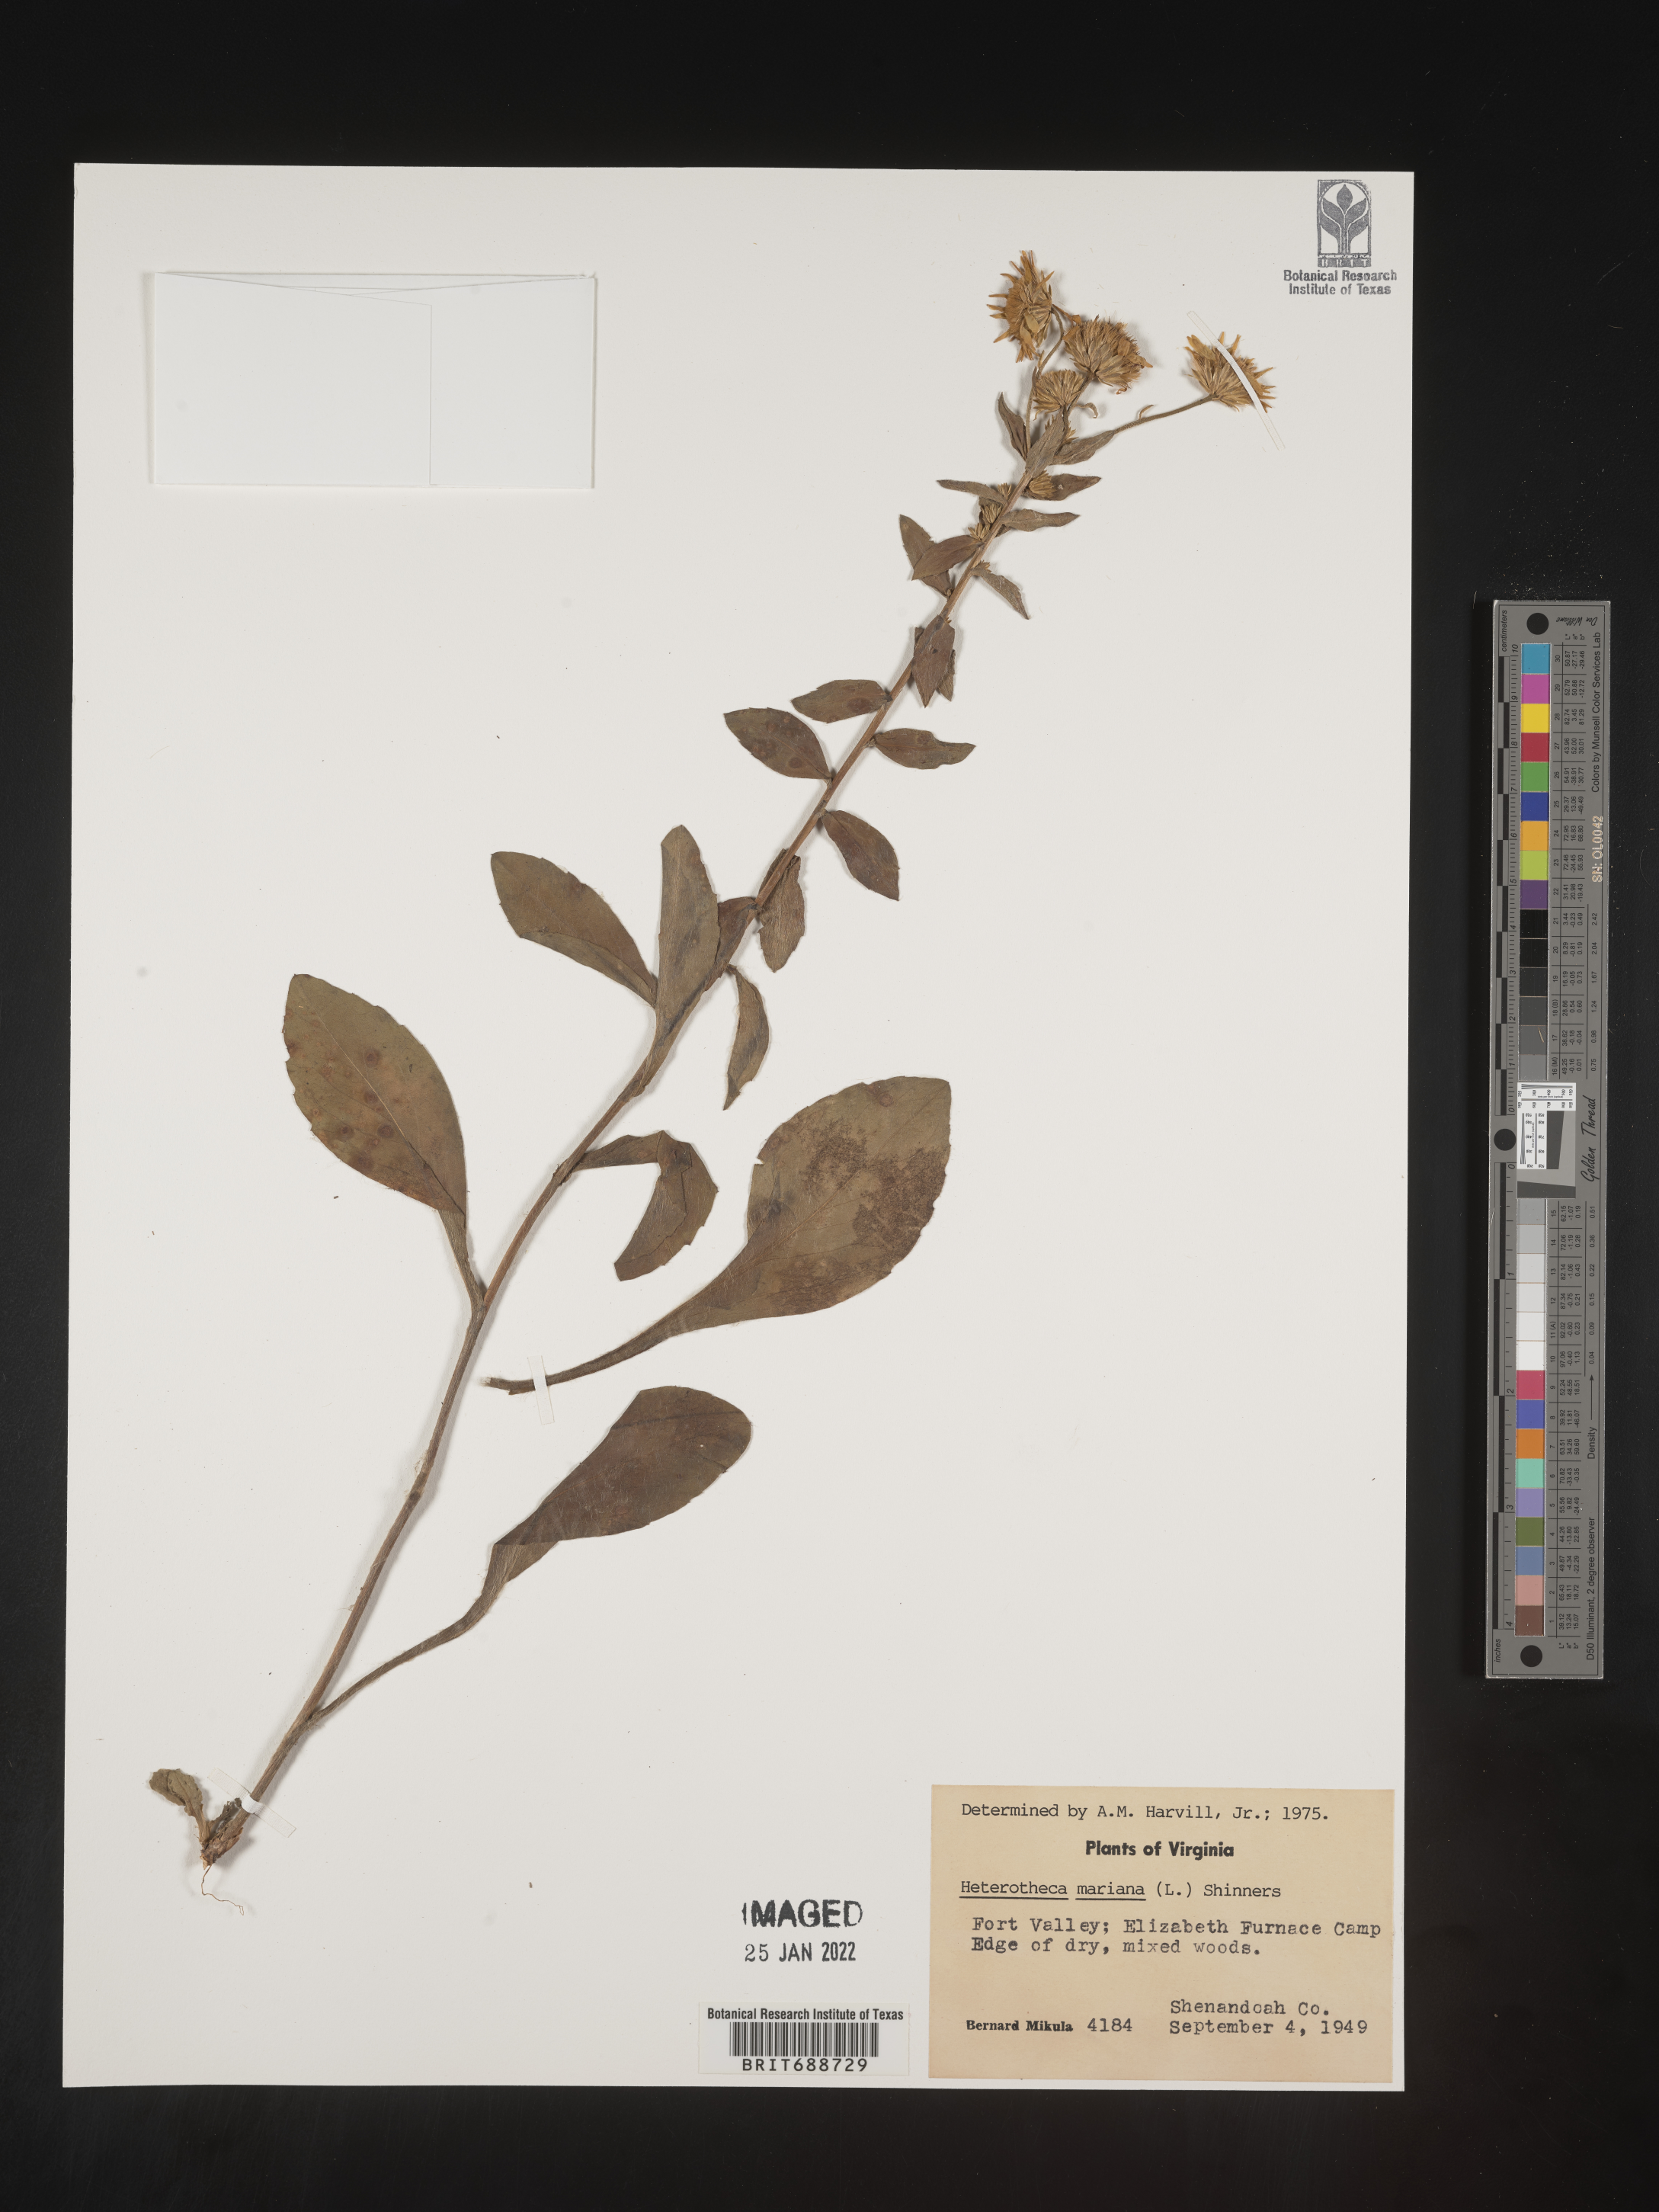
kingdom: Plantae
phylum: Tracheophyta
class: Magnoliopsida
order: Asterales
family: Asteraceae
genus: Chrysopsis
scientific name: Chrysopsis mariana
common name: Maryland golden-aster
